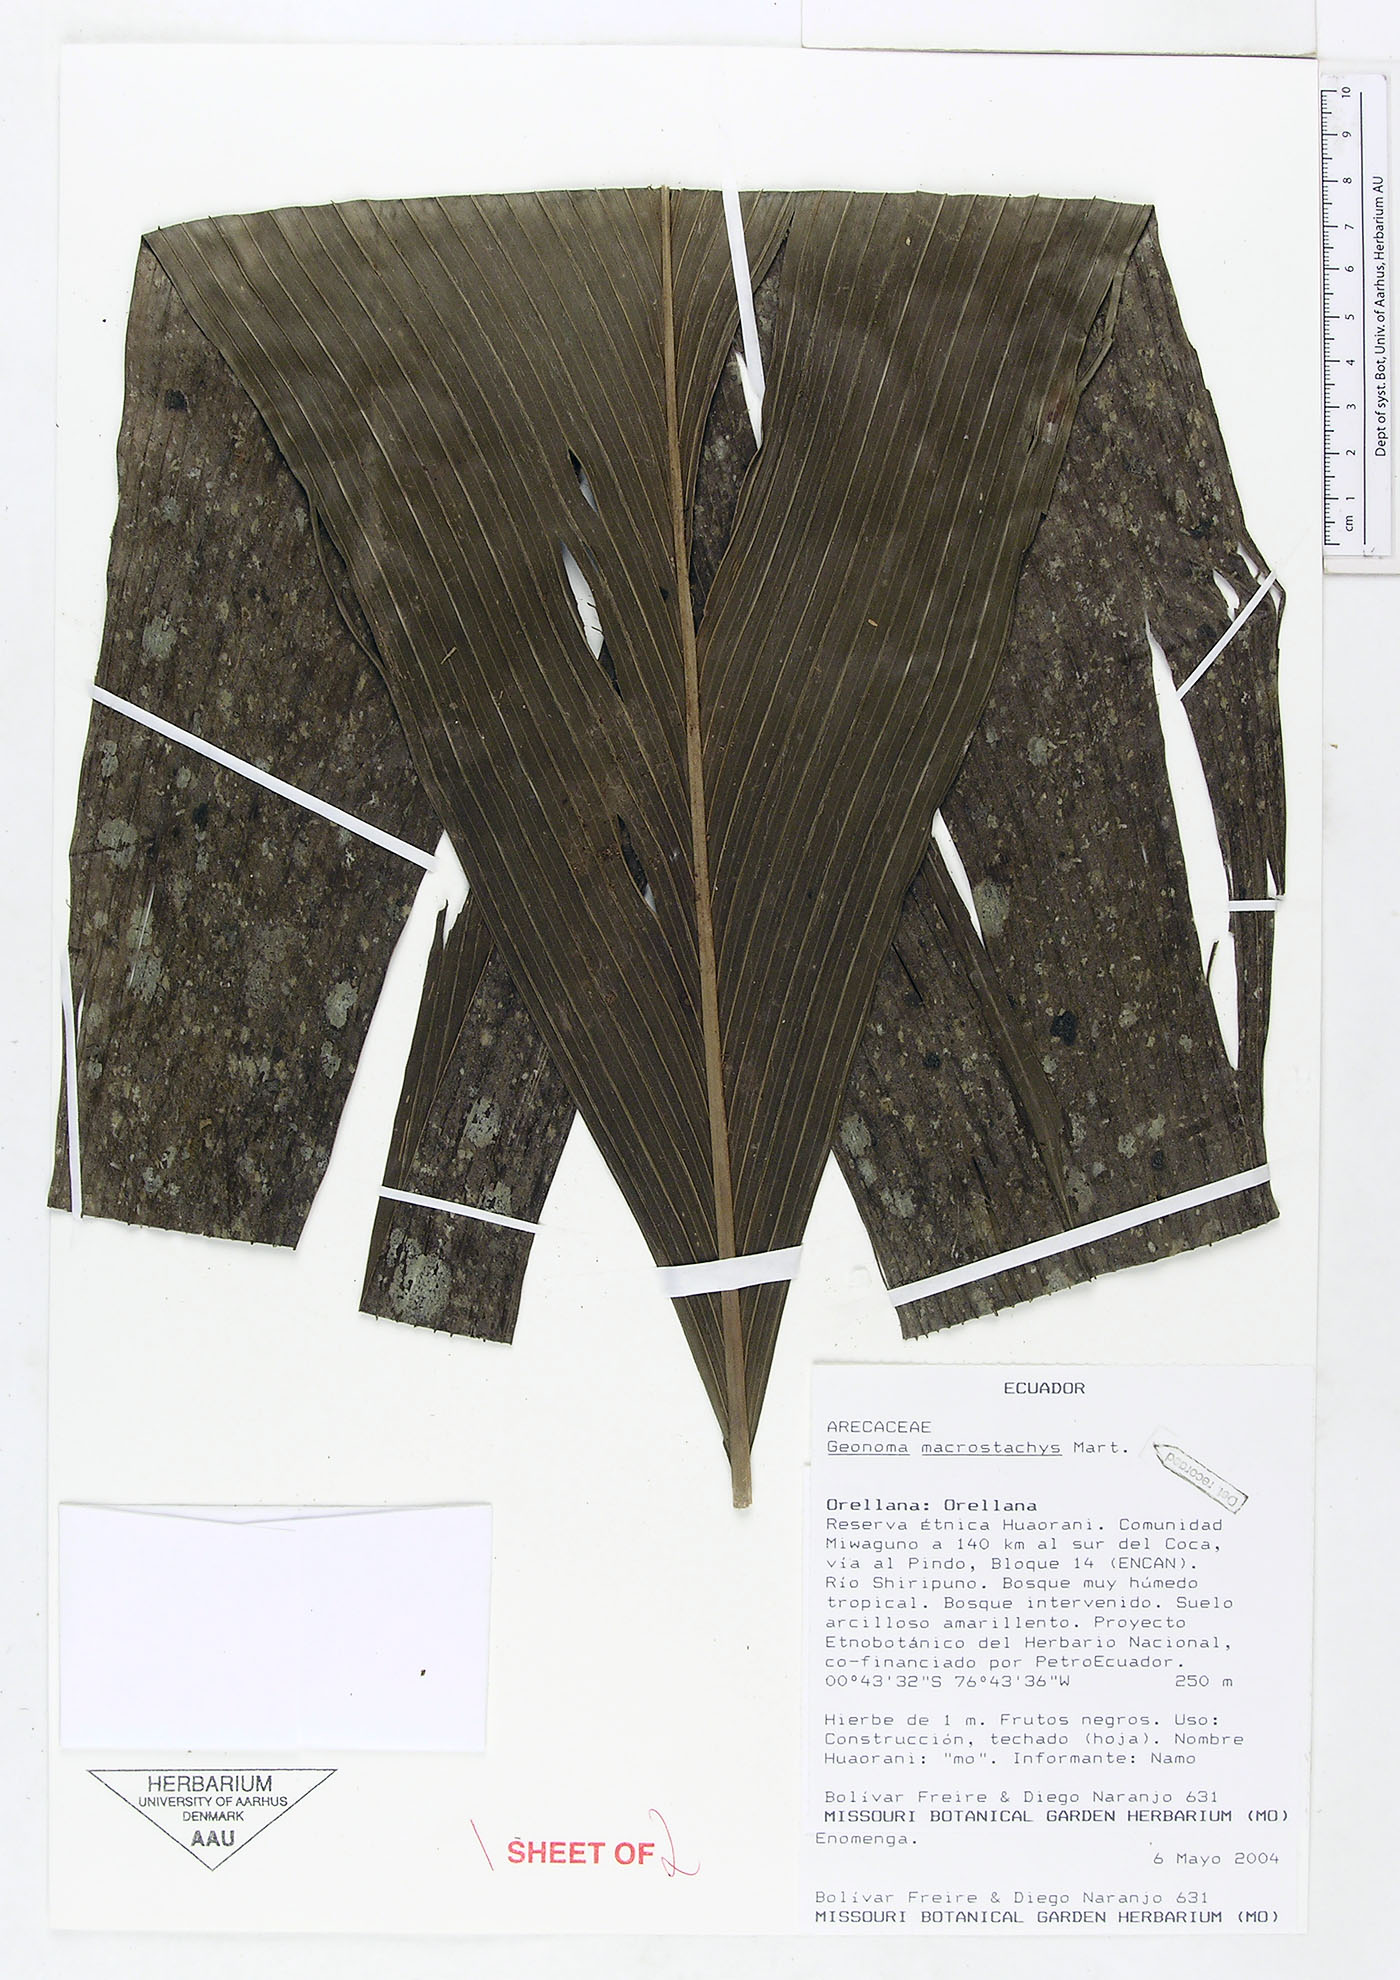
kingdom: Plantae
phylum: Tracheophyta
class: Liliopsida
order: Arecales
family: Arecaceae
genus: Geonoma
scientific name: Geonoma macrostachys
